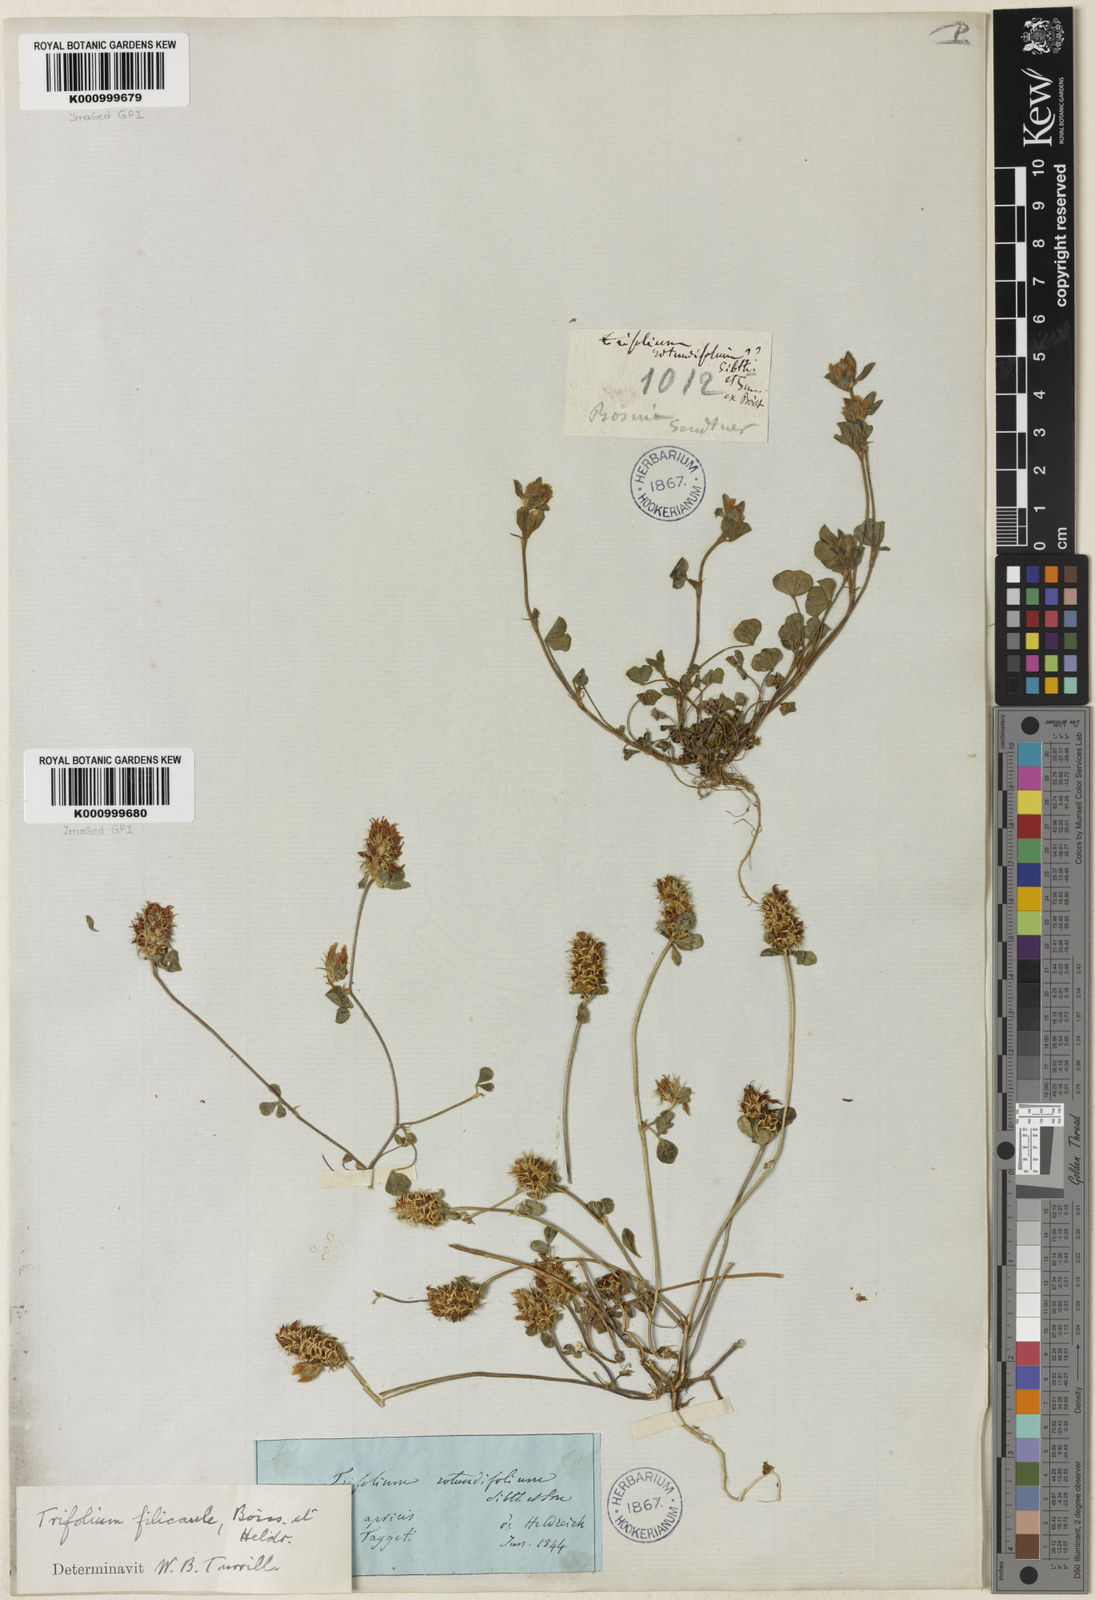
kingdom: Plantae
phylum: Tracheophyta
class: Magnoliopsida
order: Fabales
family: Fabaceae
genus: Trifolium
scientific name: Trifolium dalmaticum
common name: Dalmatian clover
